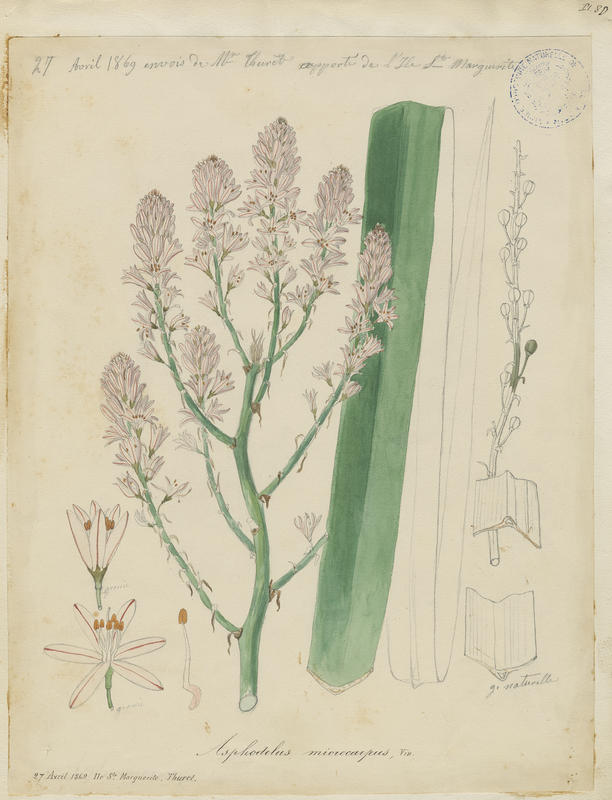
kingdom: Plantae
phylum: Tracheophyta
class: Liliopsida
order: Asparagales
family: Asphodelaceae
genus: Asphodelus
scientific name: Asphodelus ramosus
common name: Silverrod
